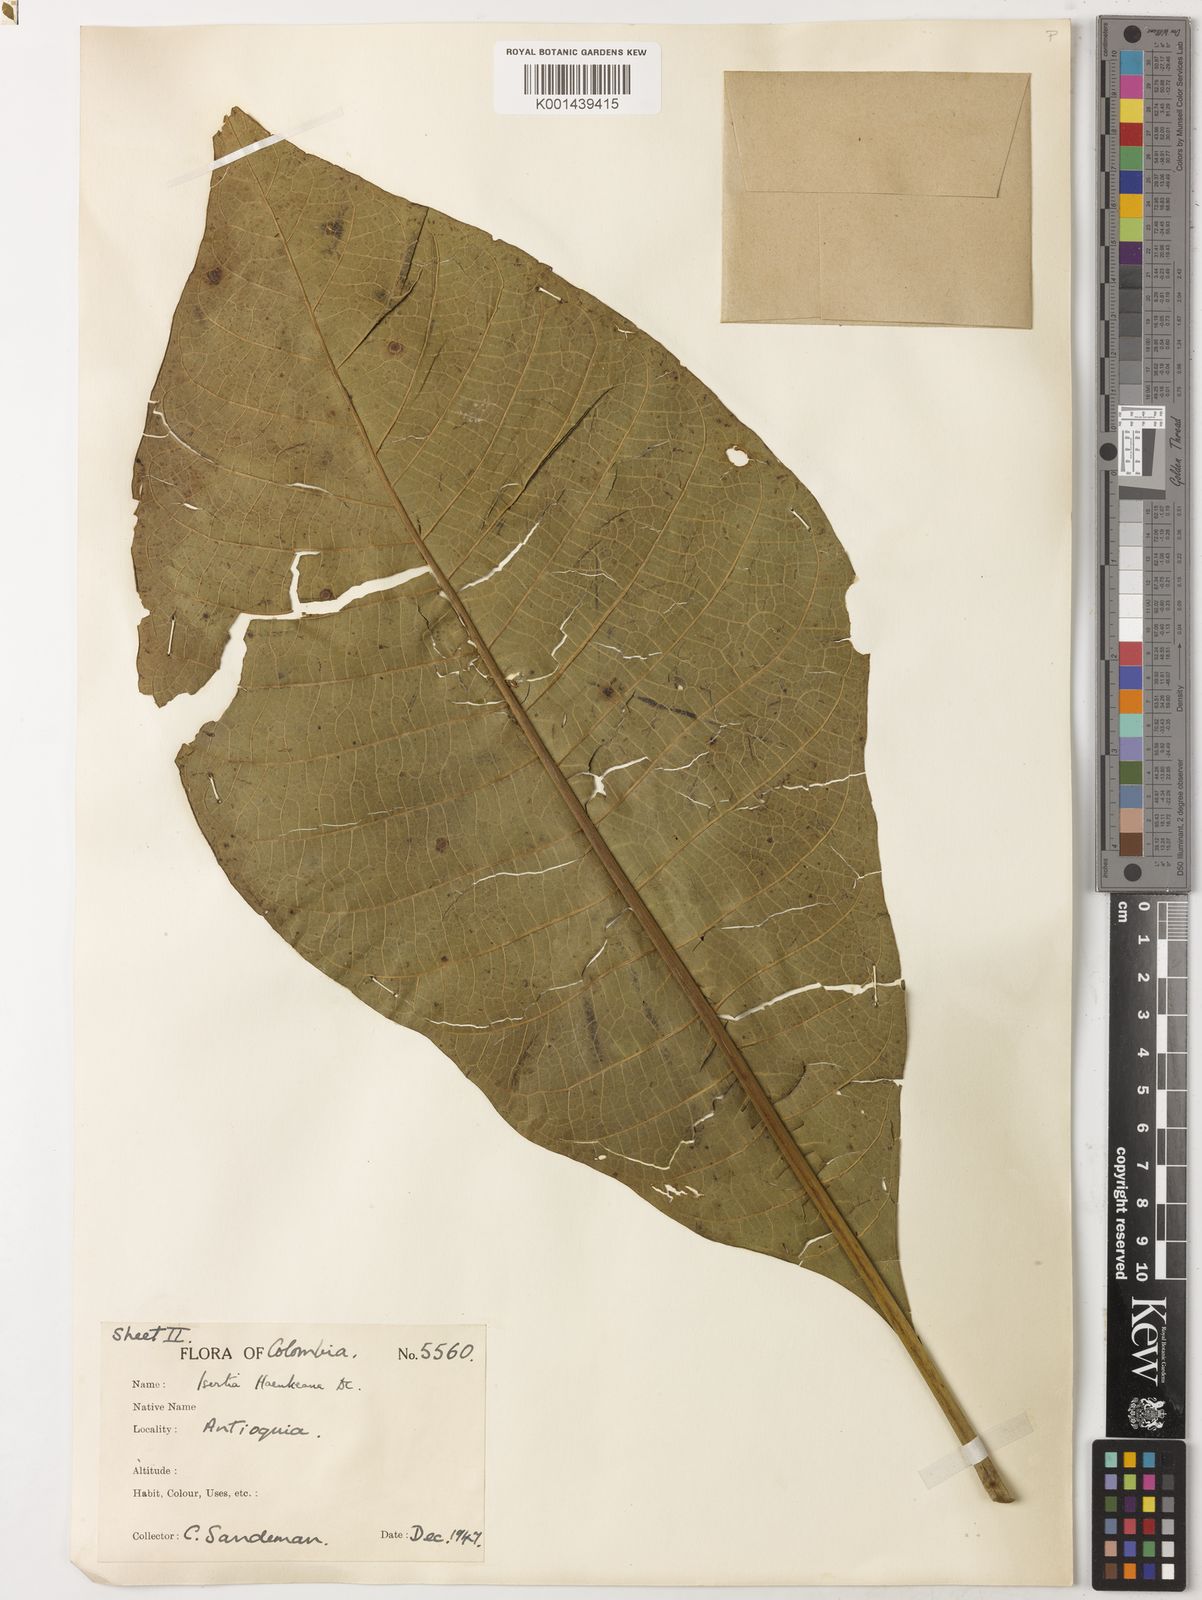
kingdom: Plantae
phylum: Tracheophyta
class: Magnoliopsida
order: Gentianales
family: Rubiaceae
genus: Isertia
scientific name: Isertia haenkeana
